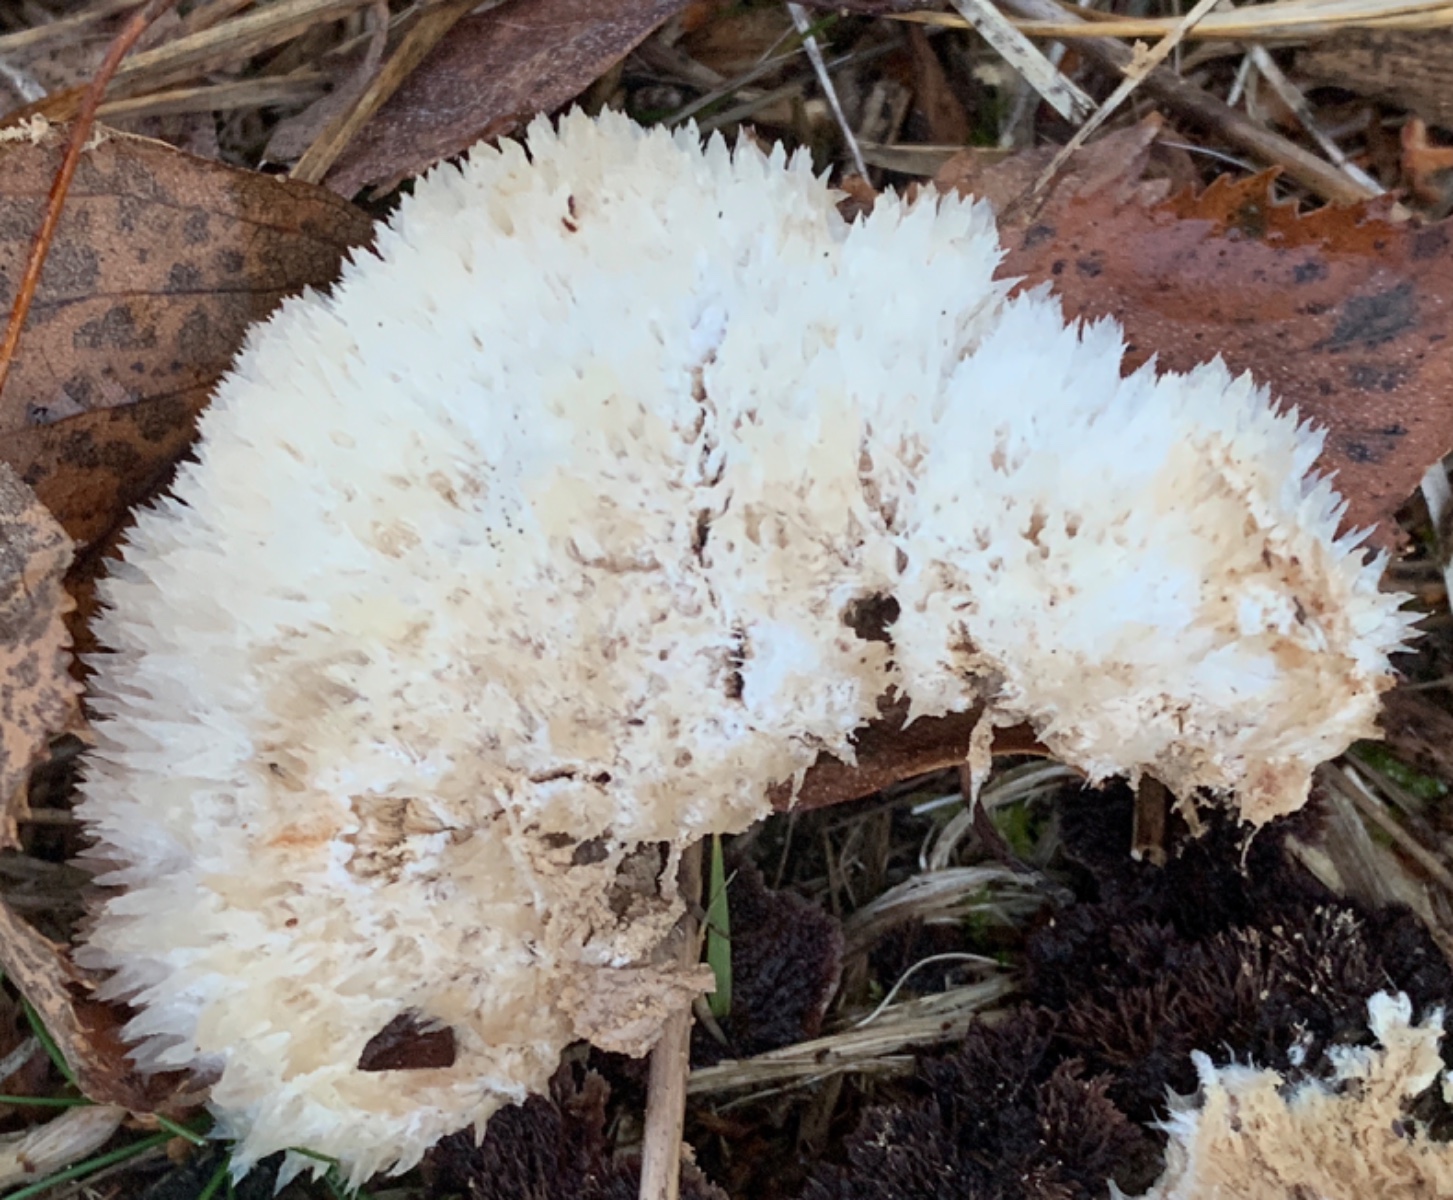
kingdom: Fungi
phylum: Basidiomycota
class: Agaricomycetes
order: Polyporales
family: Dacryobolaceae
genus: Postia
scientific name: Postia ptychogaster
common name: støvende kødporesvamp
